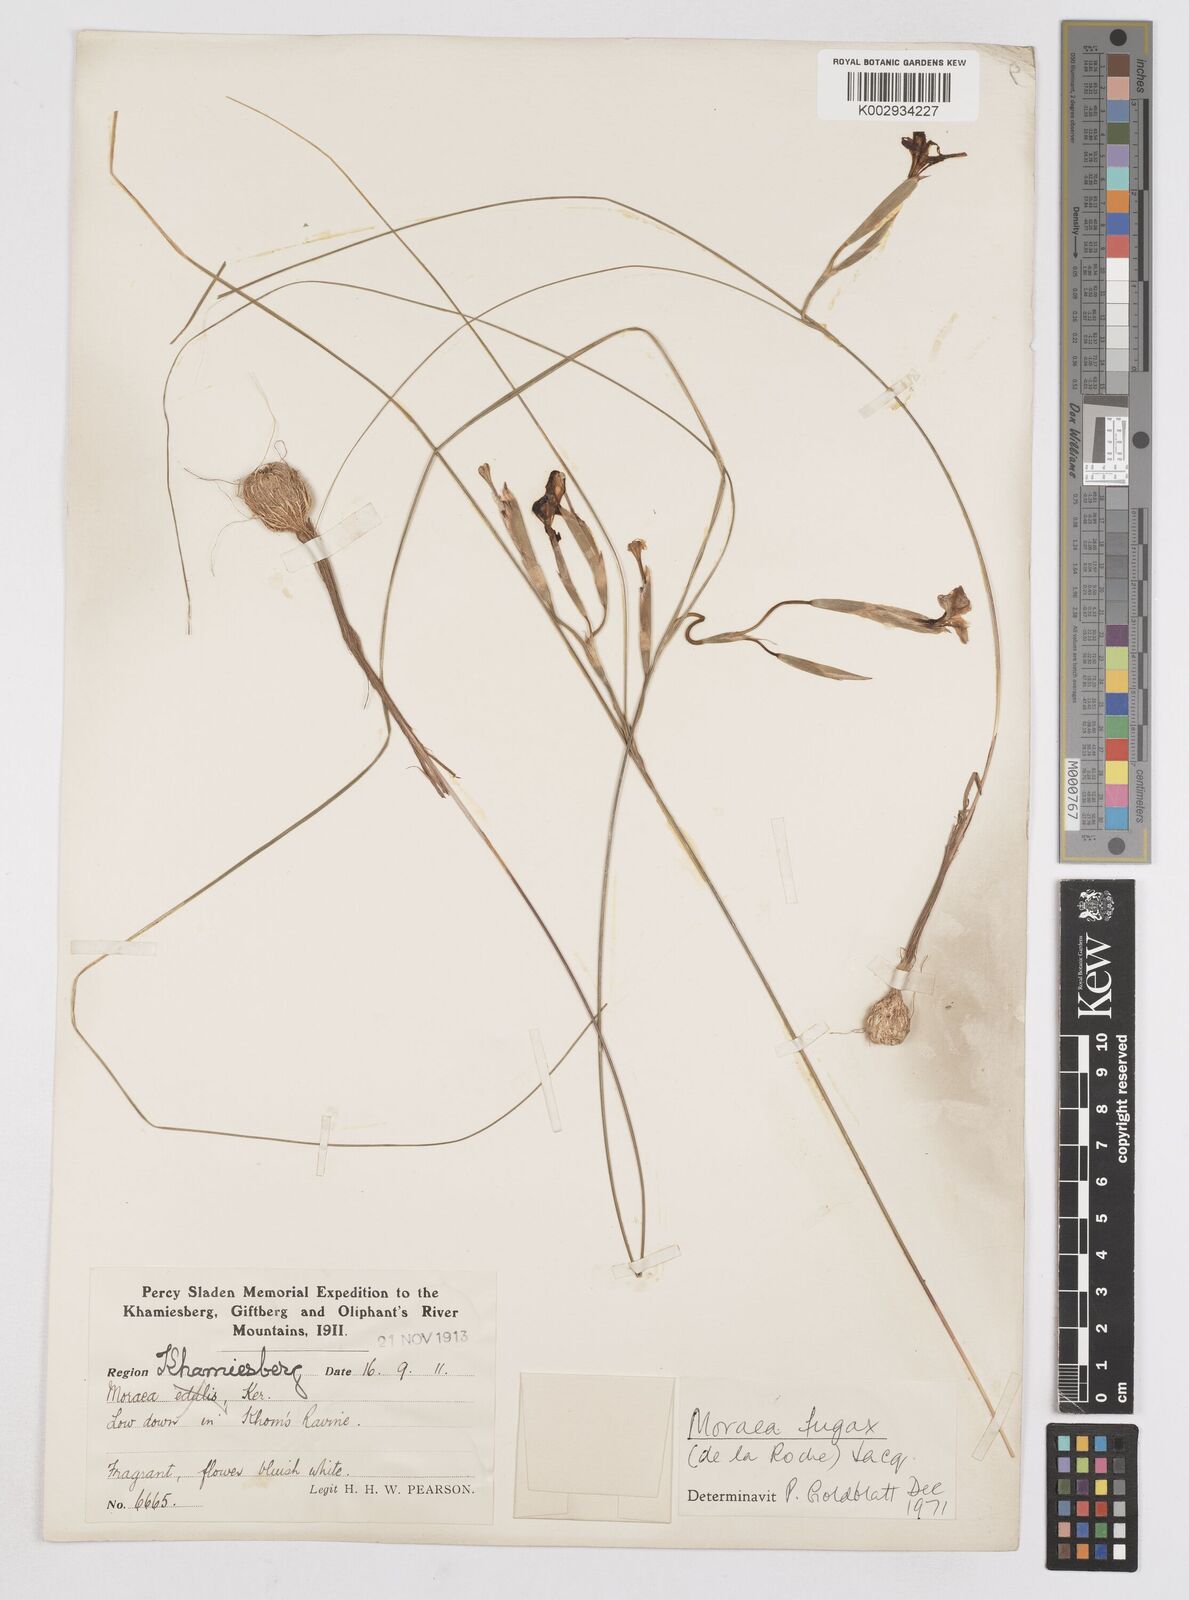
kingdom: Plantae
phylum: Tracheophyta
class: Liliopsida
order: Asparagales
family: Iridaceae
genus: Moraea
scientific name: Moraea fugax
